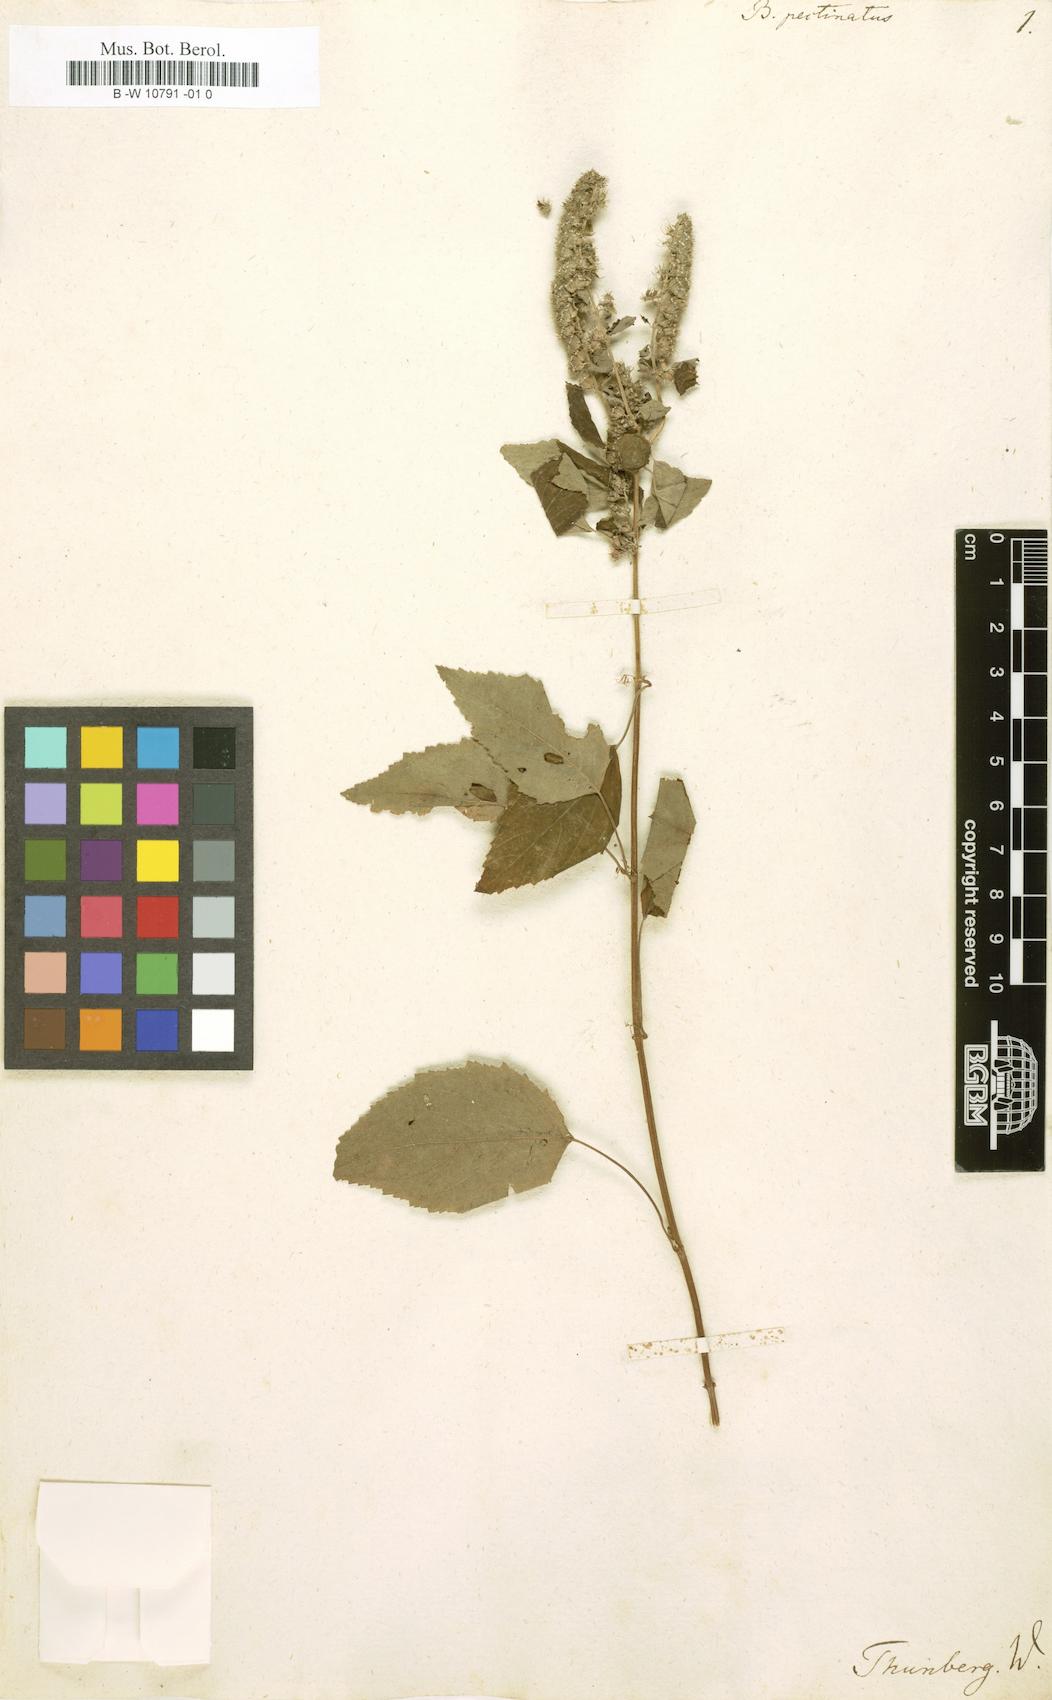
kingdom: Plantae
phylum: Tracheophyta
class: Magnoliopsida
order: Lamiales
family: Lamiaceae
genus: Mesosphaerum
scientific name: Mesosphaerum pectinatum
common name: Comb hyptis
